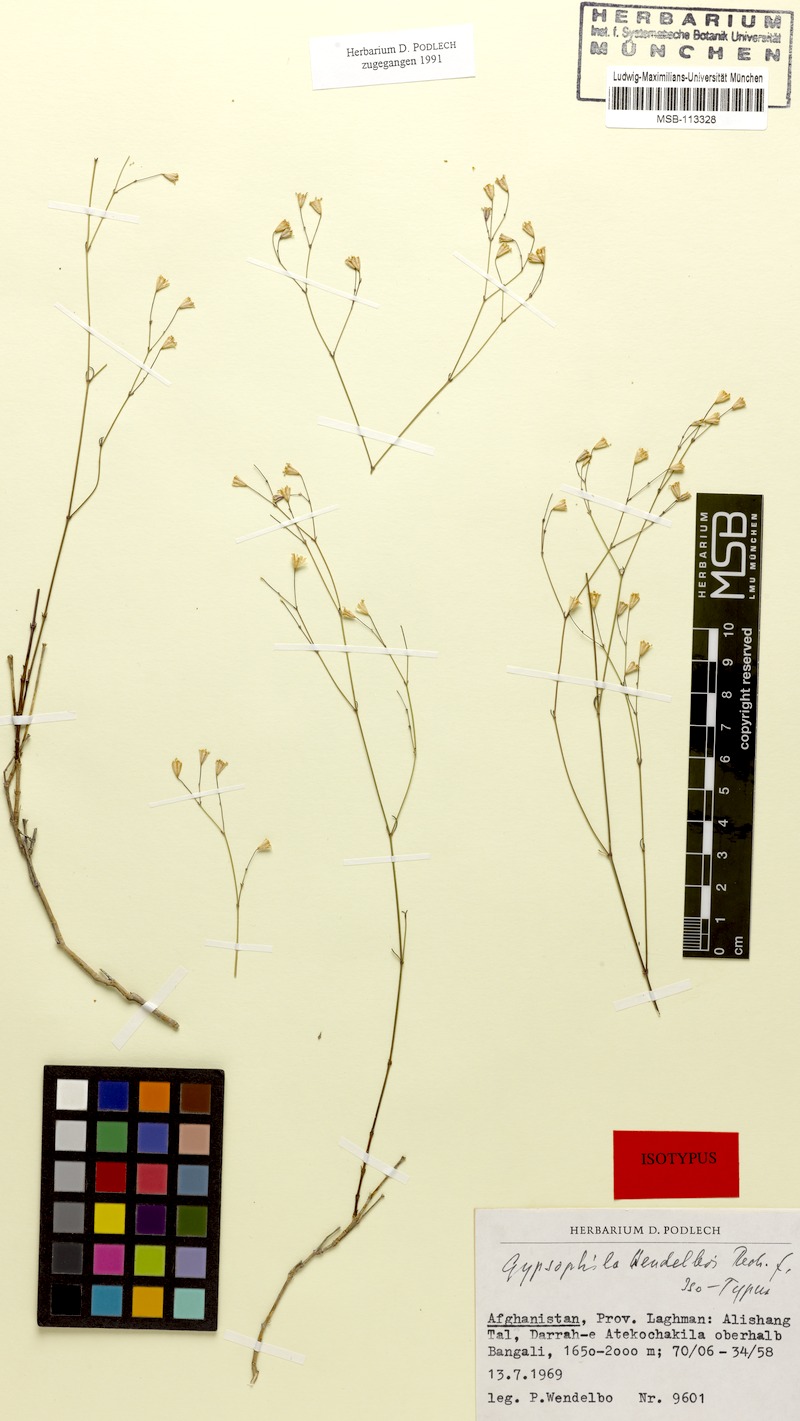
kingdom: Plantae
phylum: Tracheophyta
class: Magnoliopsida
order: Caryophyllales
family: Caryophyllaceae
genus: Gypsophila
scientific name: Gypsophila wendelboi
